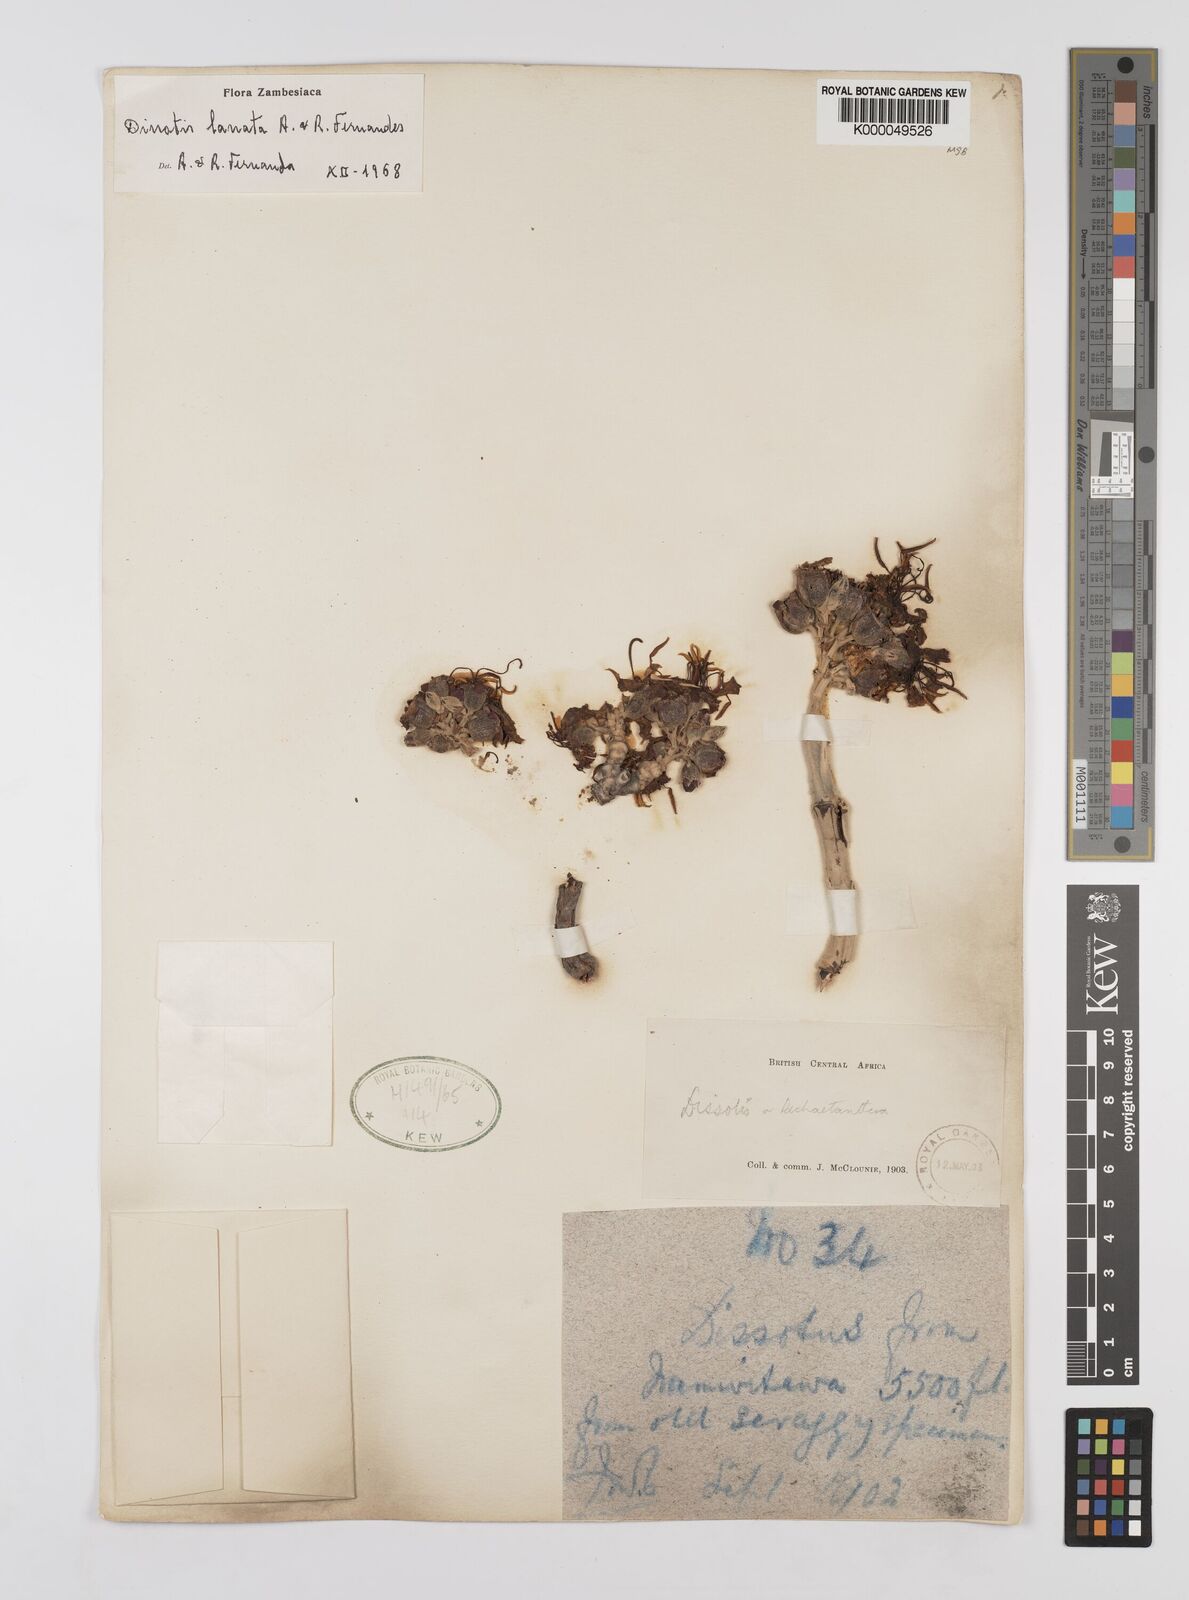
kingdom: Plantae
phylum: Tracheophyta
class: Magnoliopsida
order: Myrtales
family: Melastomataceae
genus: Dissotidendron
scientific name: Dissotidendron lanatum
